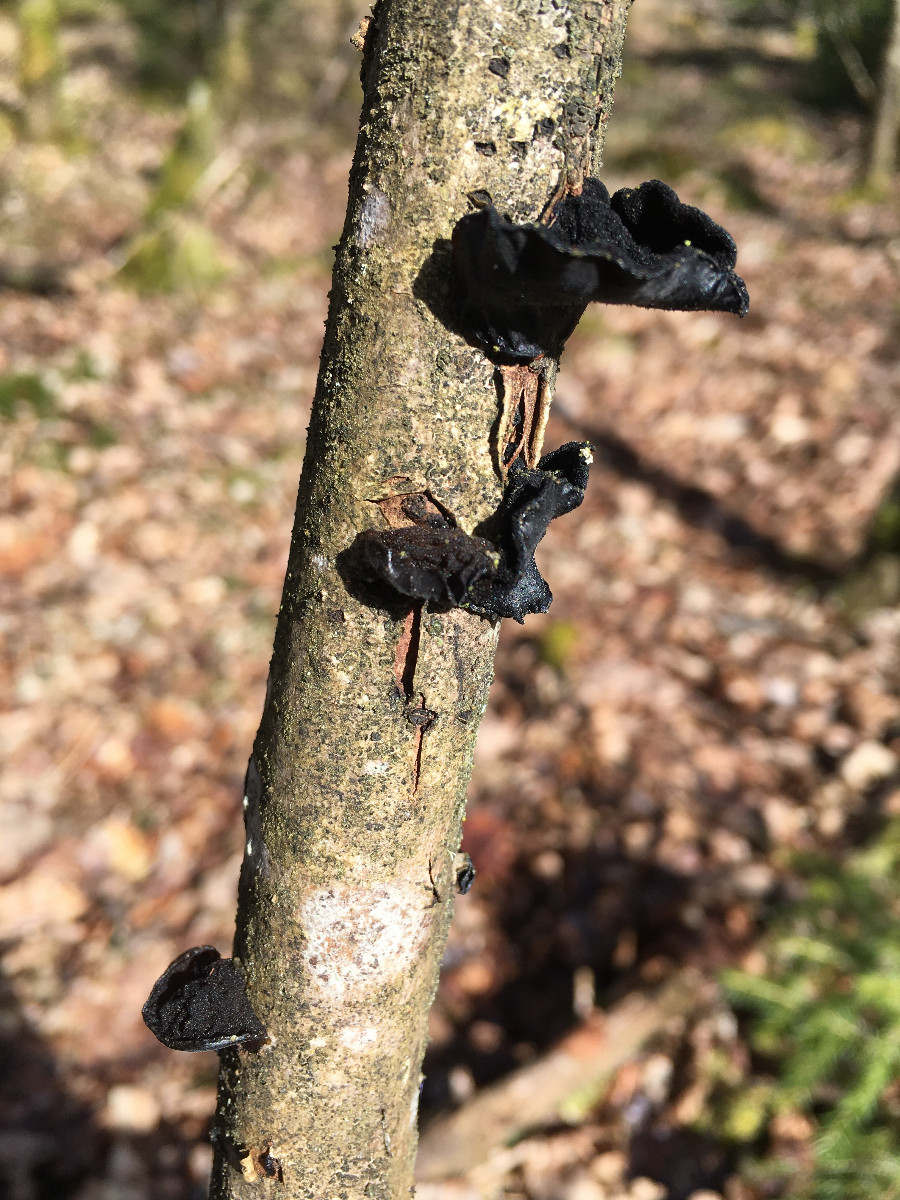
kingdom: Fungi
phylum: Basidiomycota
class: Agaricomycetes
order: Auriculariales
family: Auriculariaceae
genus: Exidia
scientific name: Exidia glandulosa
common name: ege-bævretop
